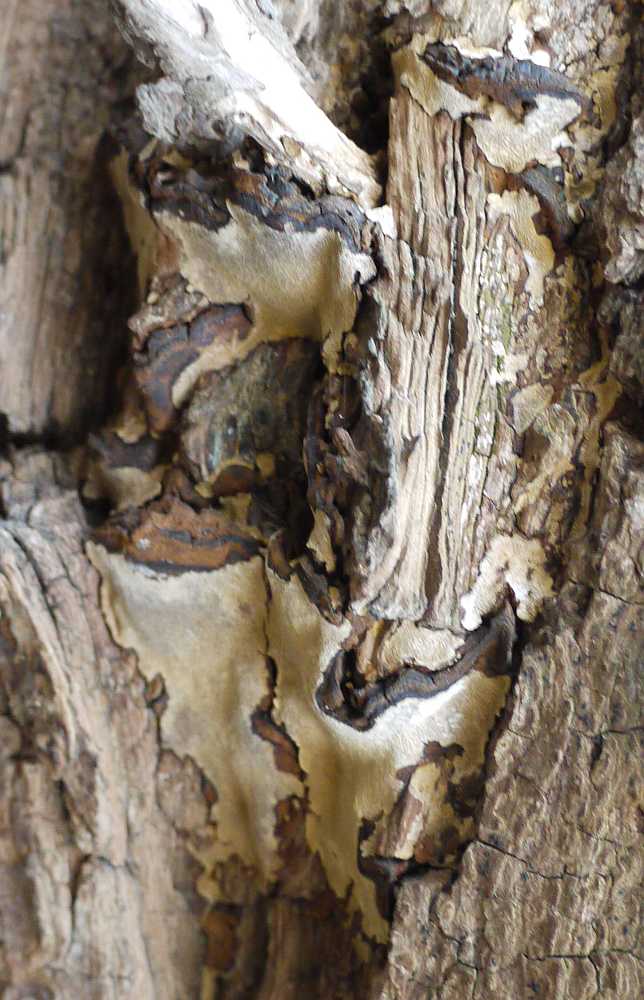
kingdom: Fungi
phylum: Basidiomycota
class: Agaricomycetes
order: Hymenochaetales
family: Hymenochaetaceae
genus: Phellinopsis
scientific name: Phellinopsis conchata
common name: pile-ildporesvamp
